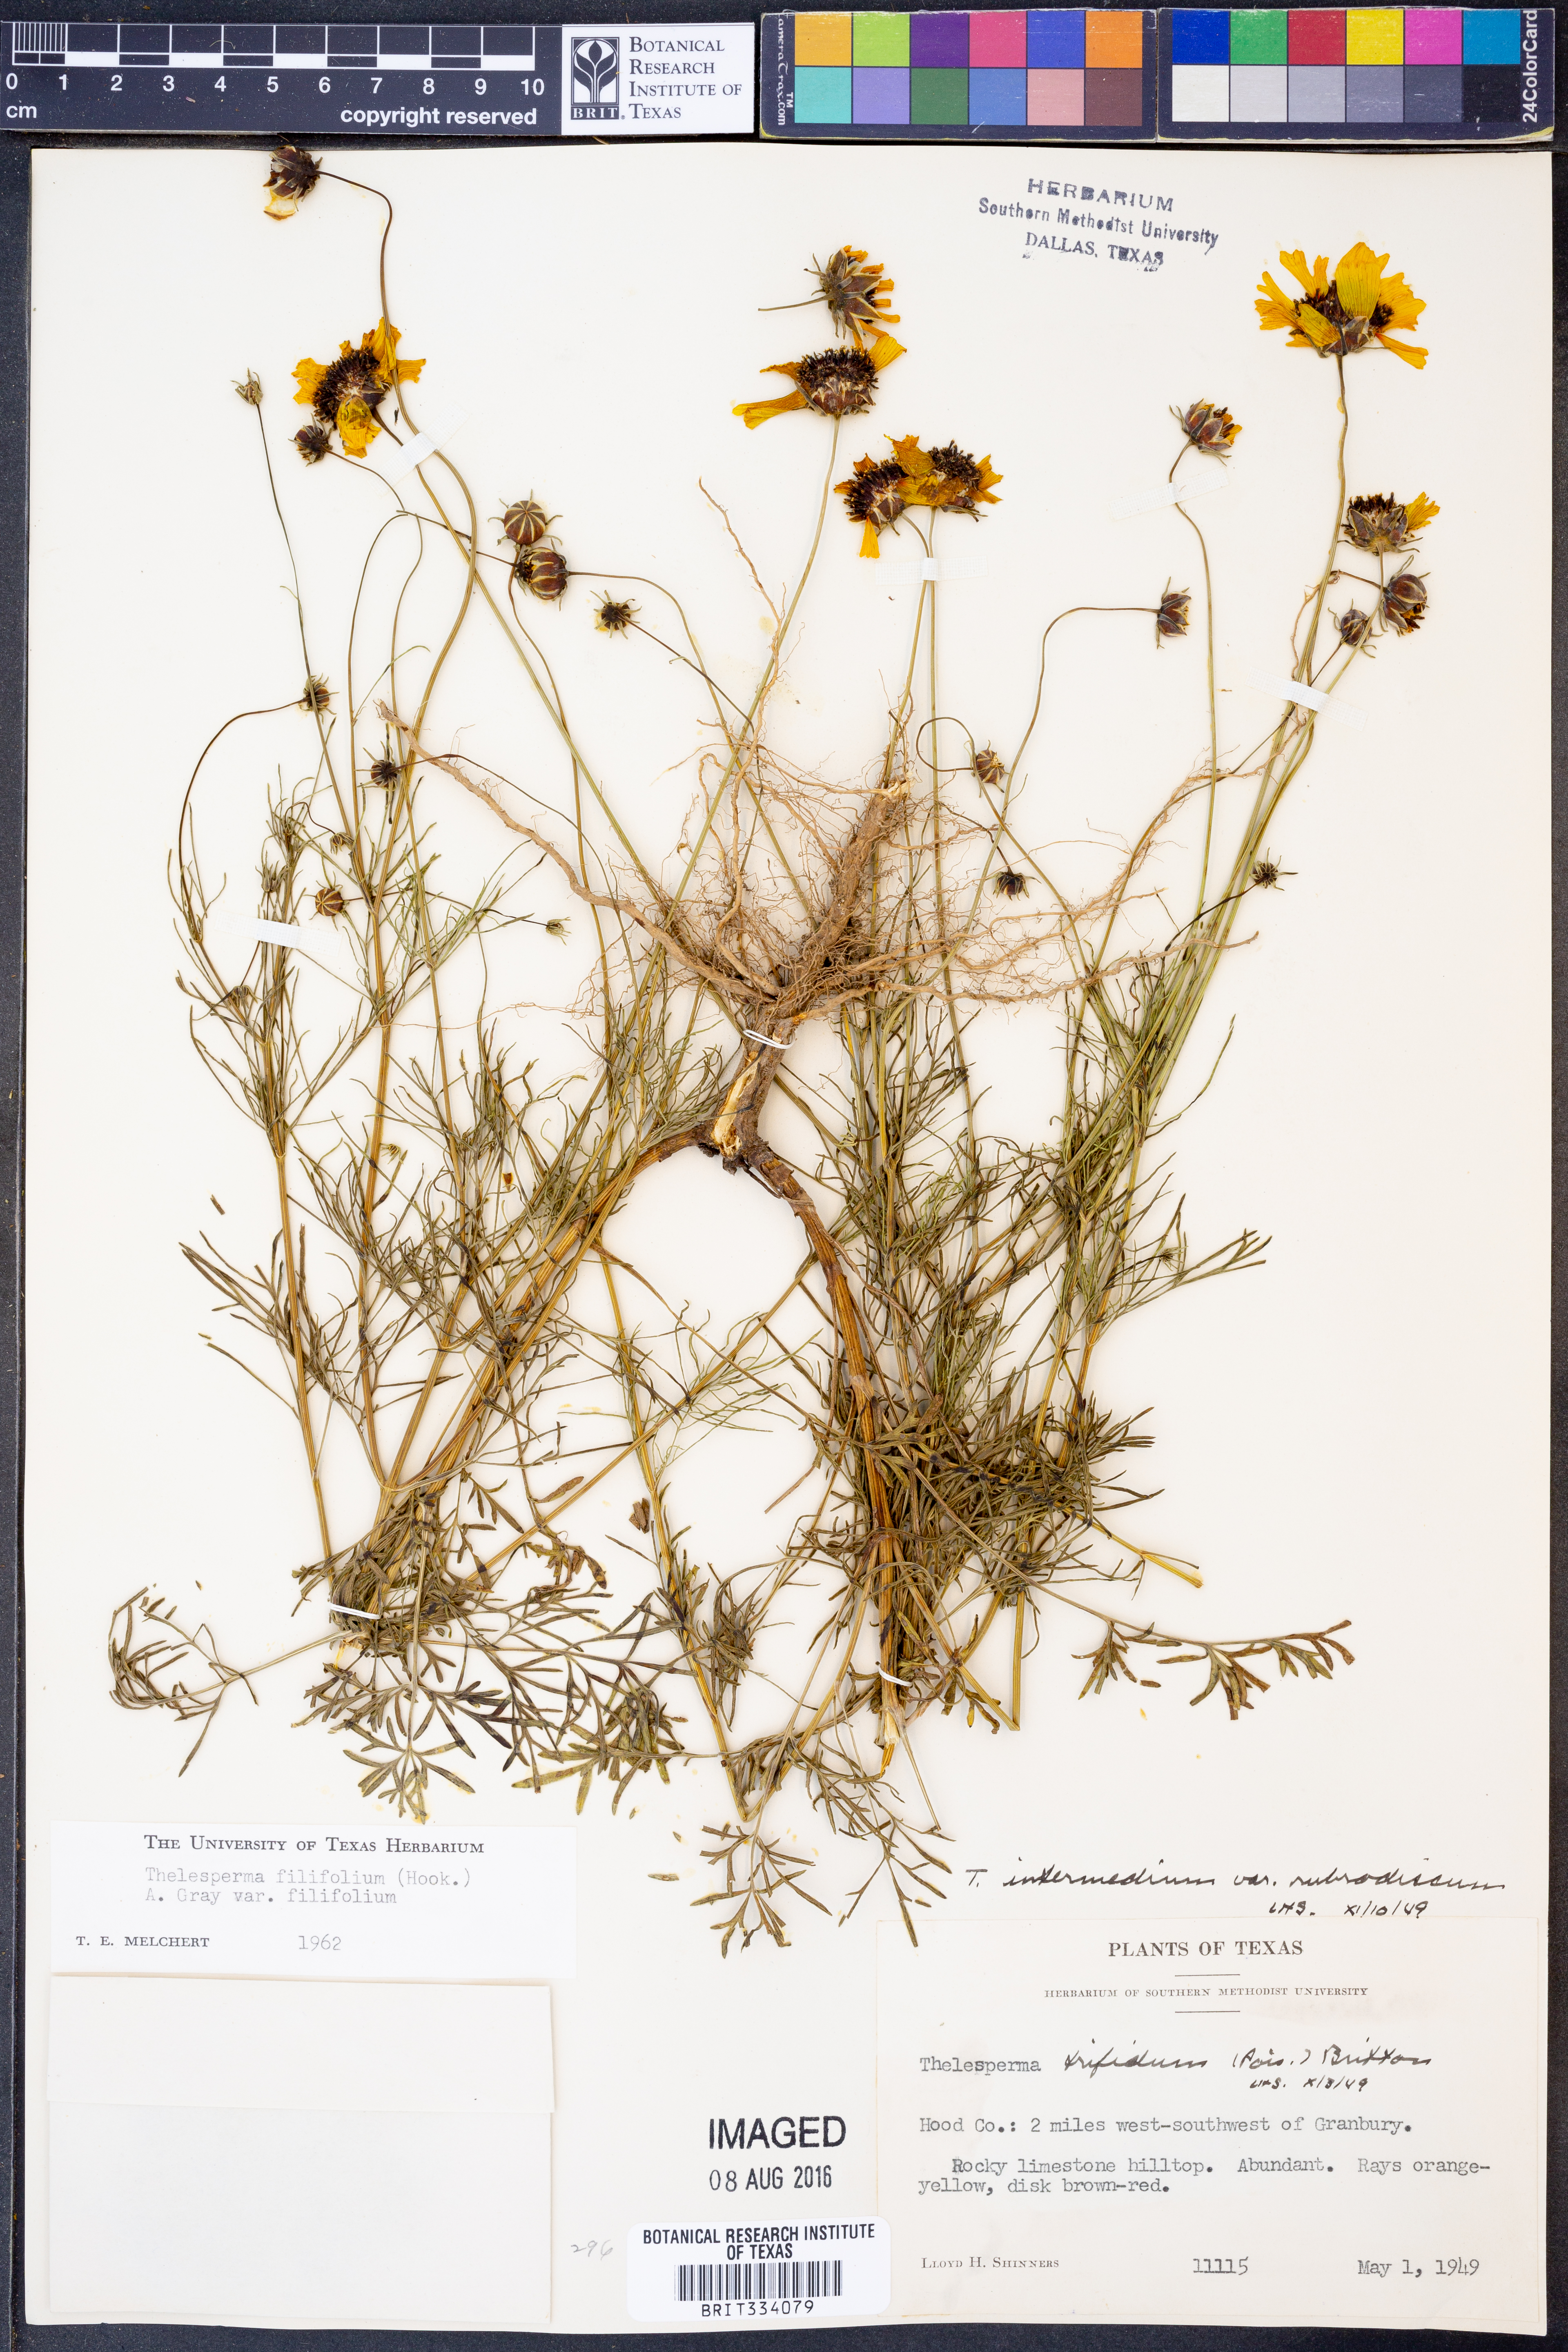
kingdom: Plantae
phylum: Tracheophyta
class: Magnoliopsida
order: Asterales
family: Asteraceae
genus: Thelesperma
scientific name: Thelesperma filifolium
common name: Stiff greenthread
